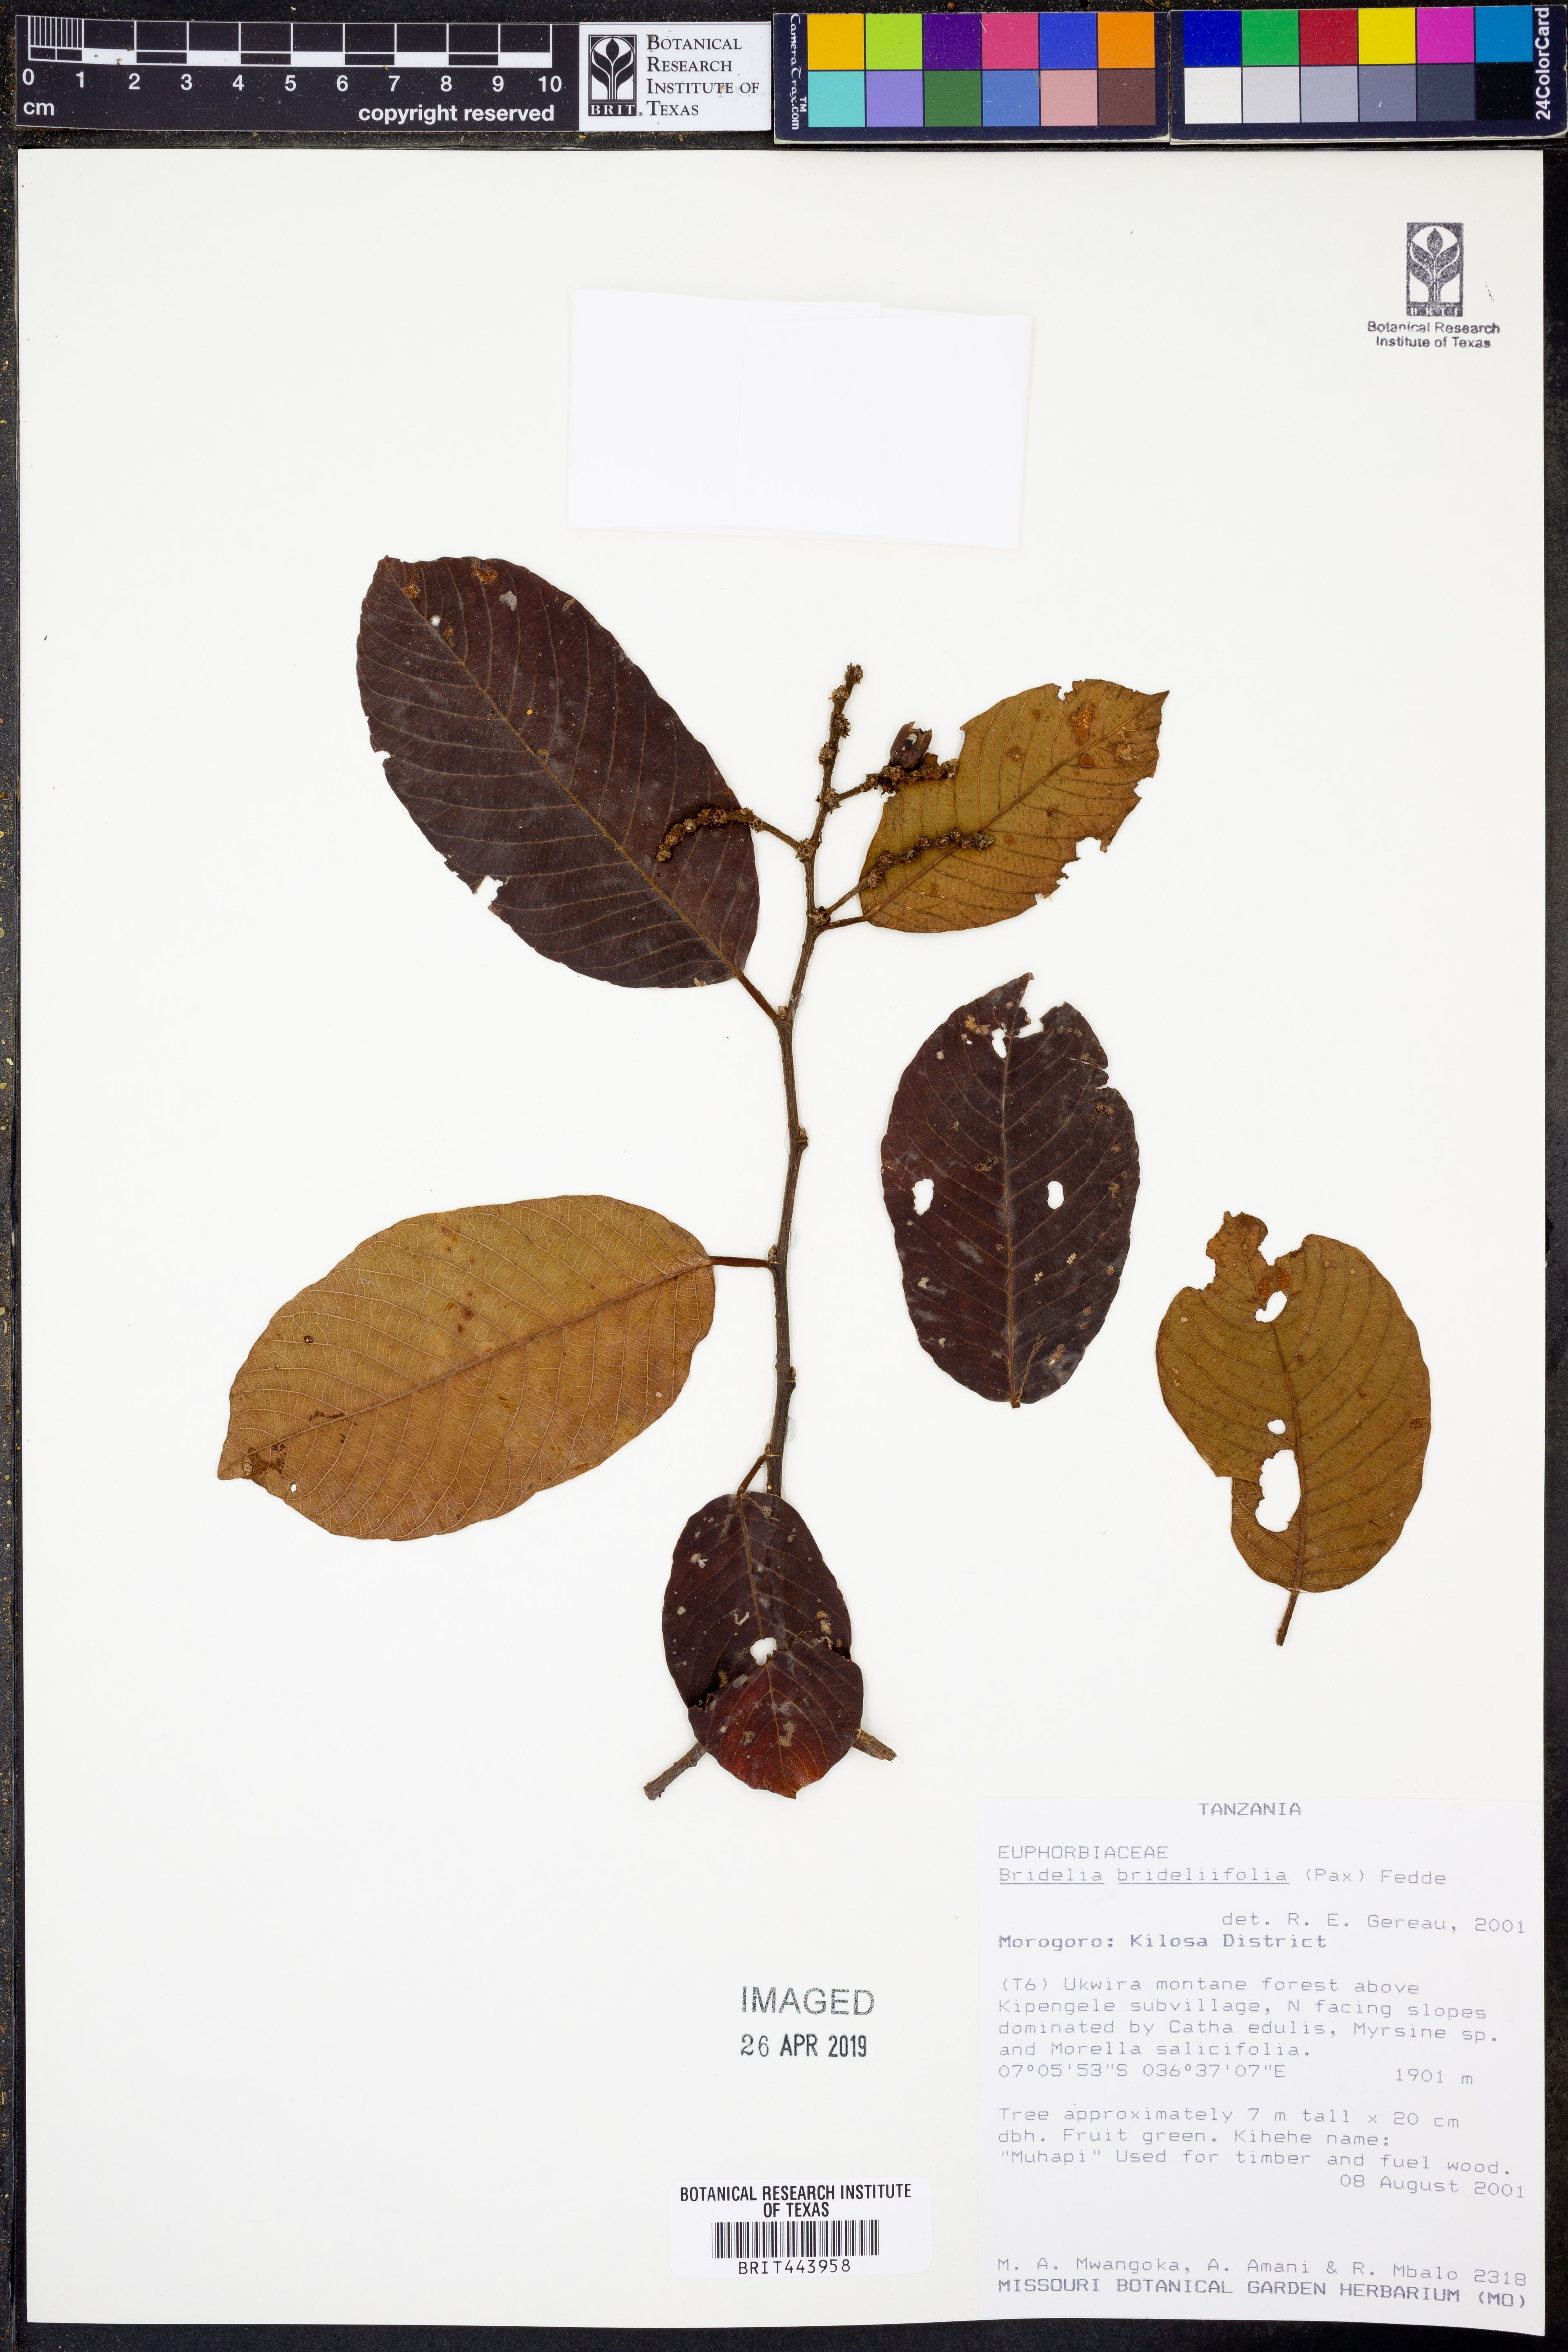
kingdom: Plantae
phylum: Tracheophyta
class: Magnoliopsida
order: Malpighiales
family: Phyllanthaceae
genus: Bridelia
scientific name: Bridelia brideliifolia
